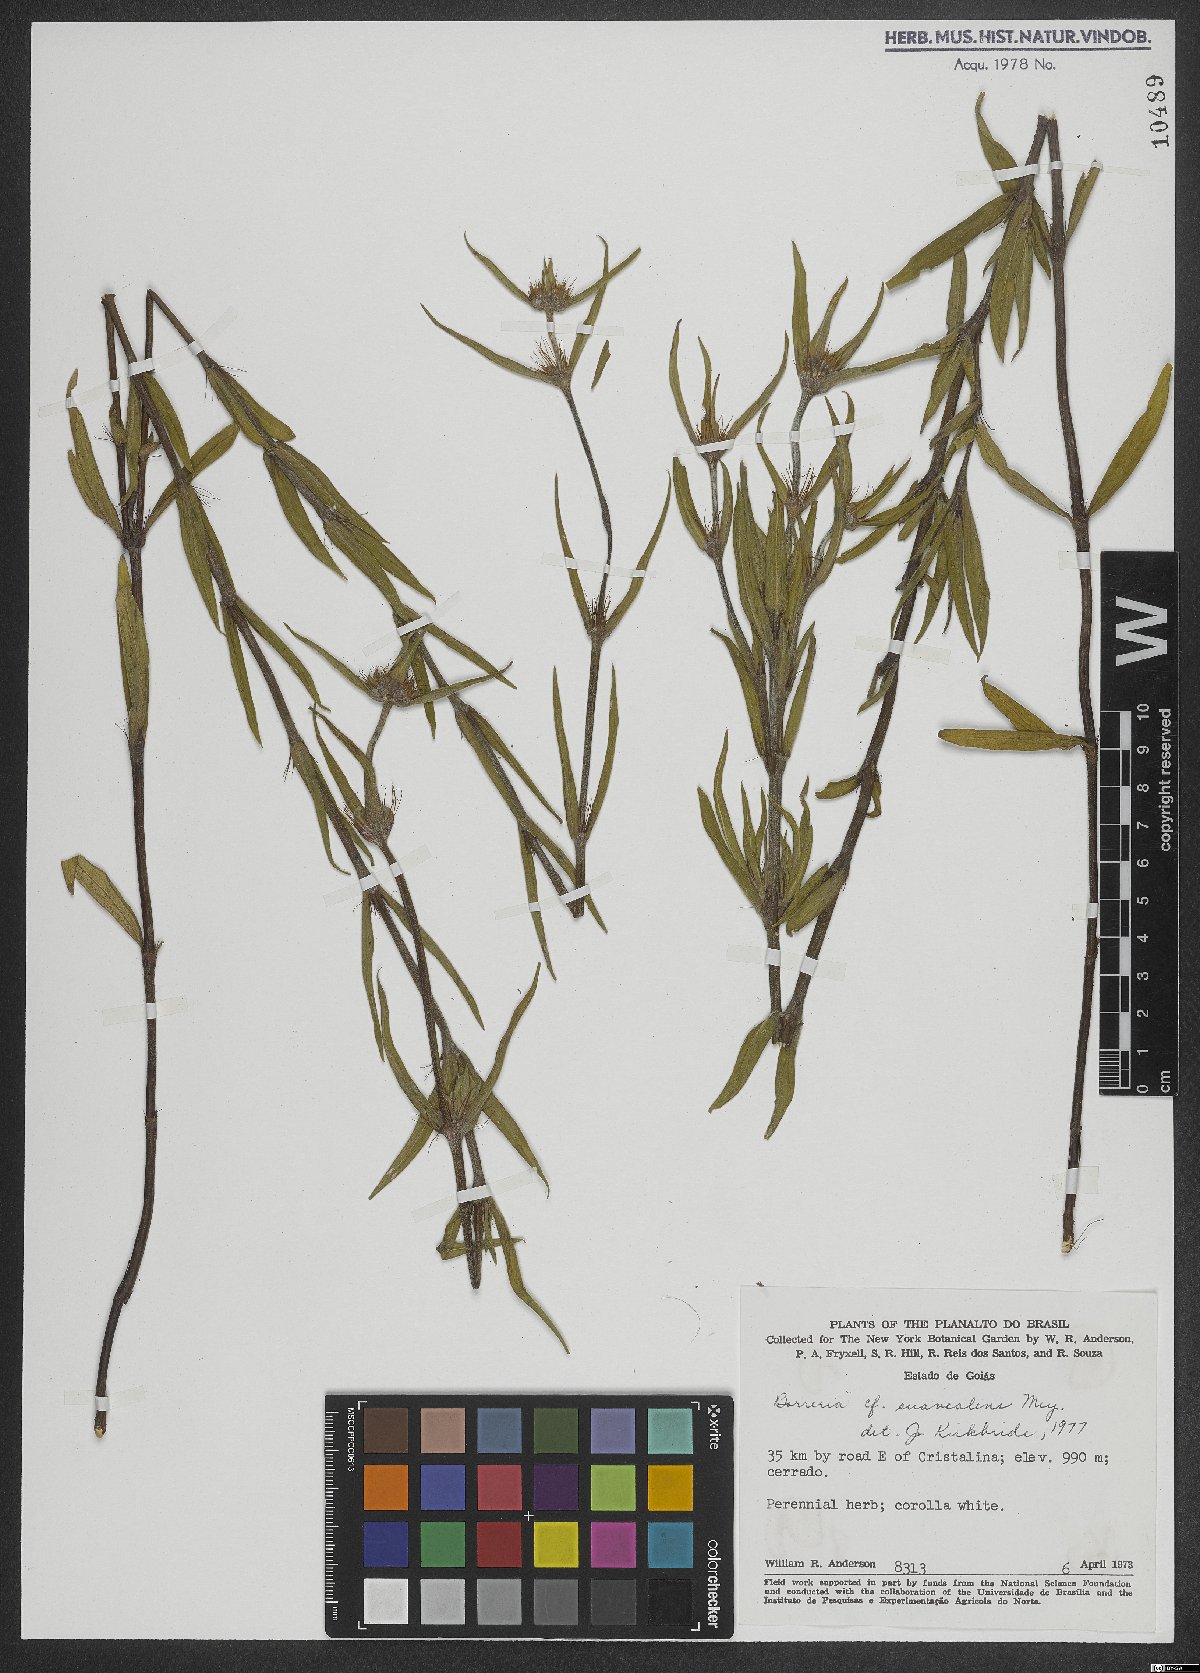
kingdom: Plantae
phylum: Tracheophyta
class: Magnoliopsida
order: Gentianales
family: Rubiaceae
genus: Spermacoce
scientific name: Spermacoce suaveolens
